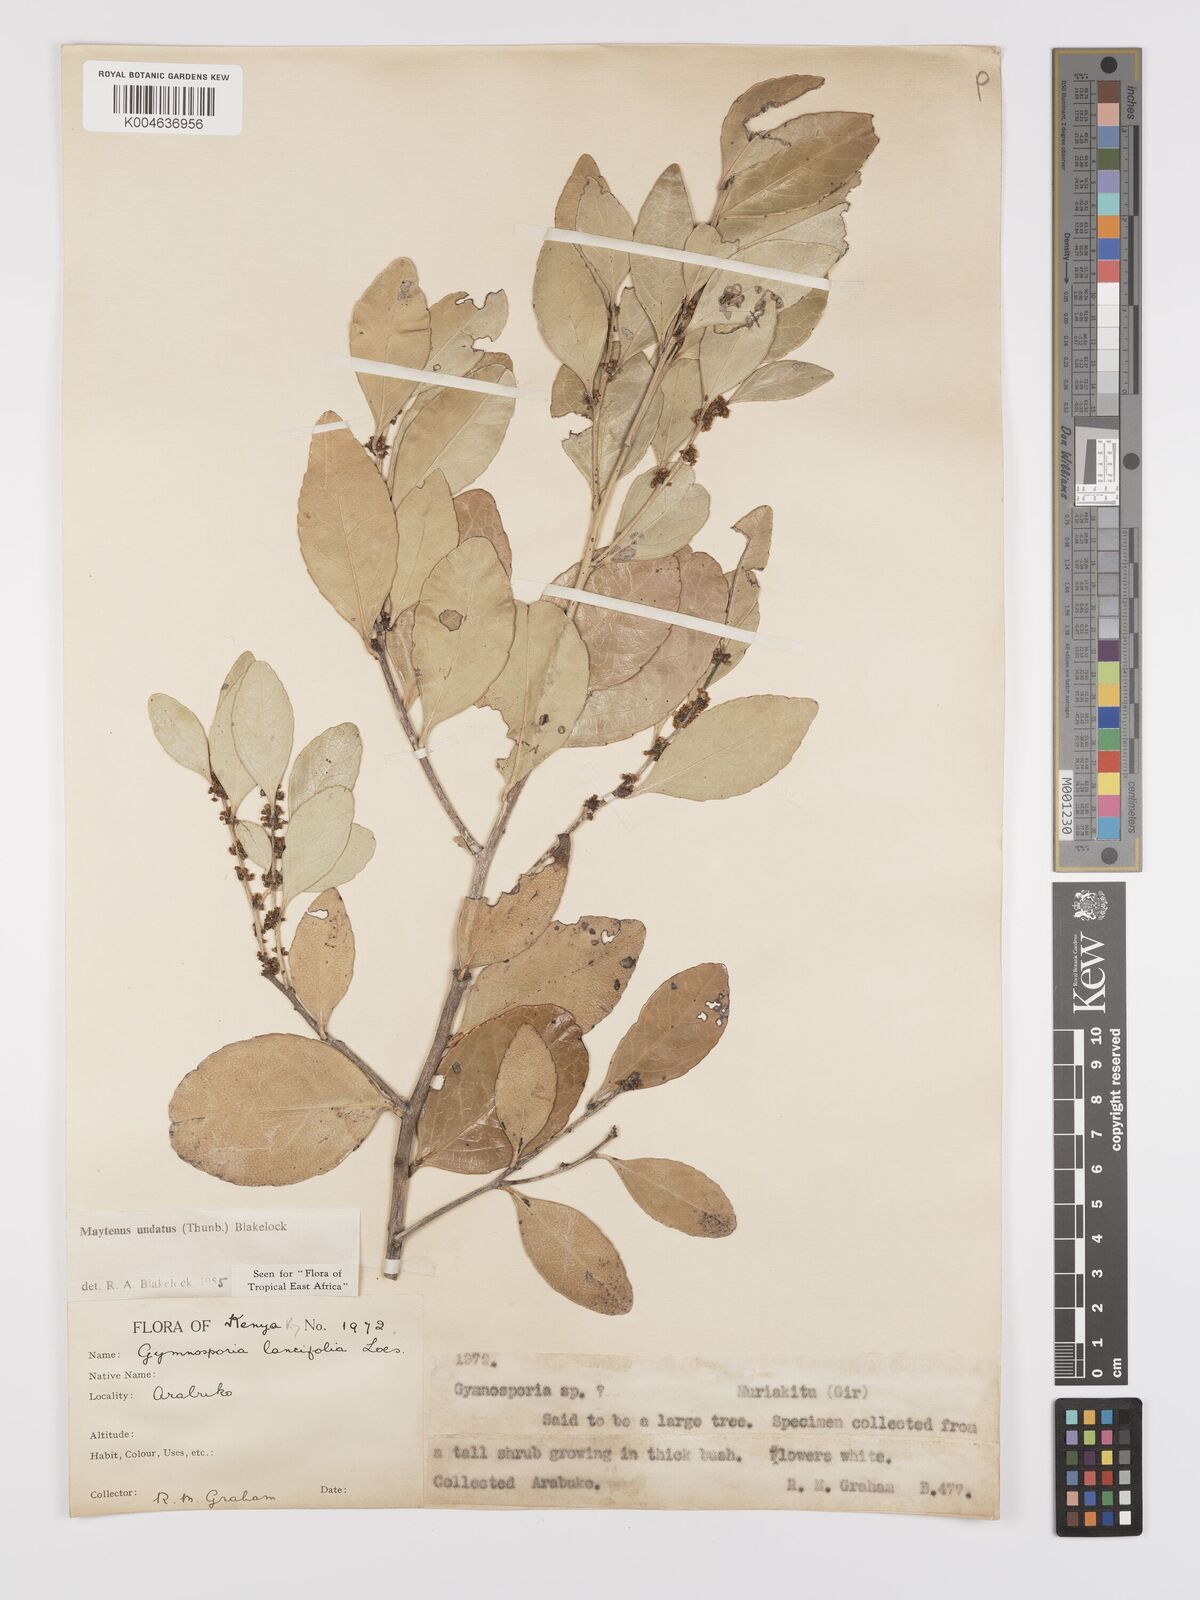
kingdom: Plantae
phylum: Tracheophyta
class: Magnoliopsida
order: Celastrales
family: Celastraceae
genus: Gymnosporia
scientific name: Gymnosporia undata
